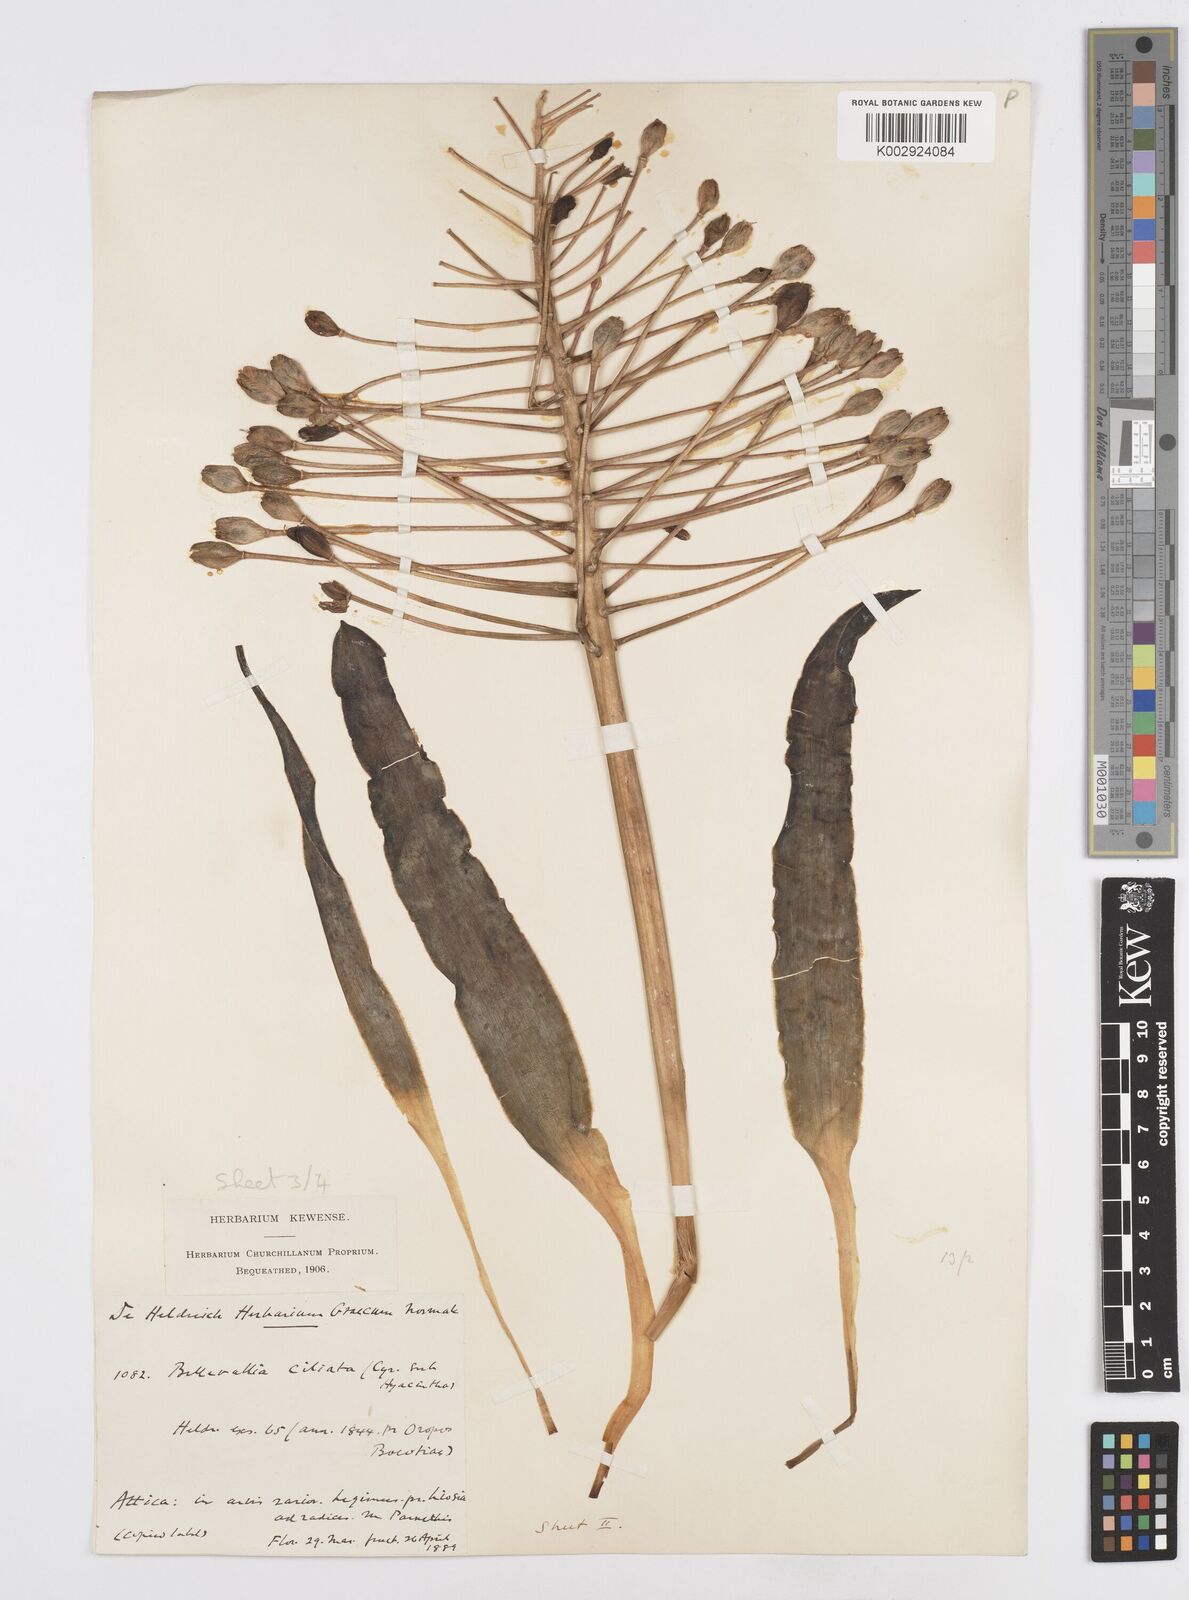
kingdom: Plantae
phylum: Tracheophyta
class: Liliopsida
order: Asparagales
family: Asparagaceae
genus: Bellevalia
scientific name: Bellevalia ciliata
